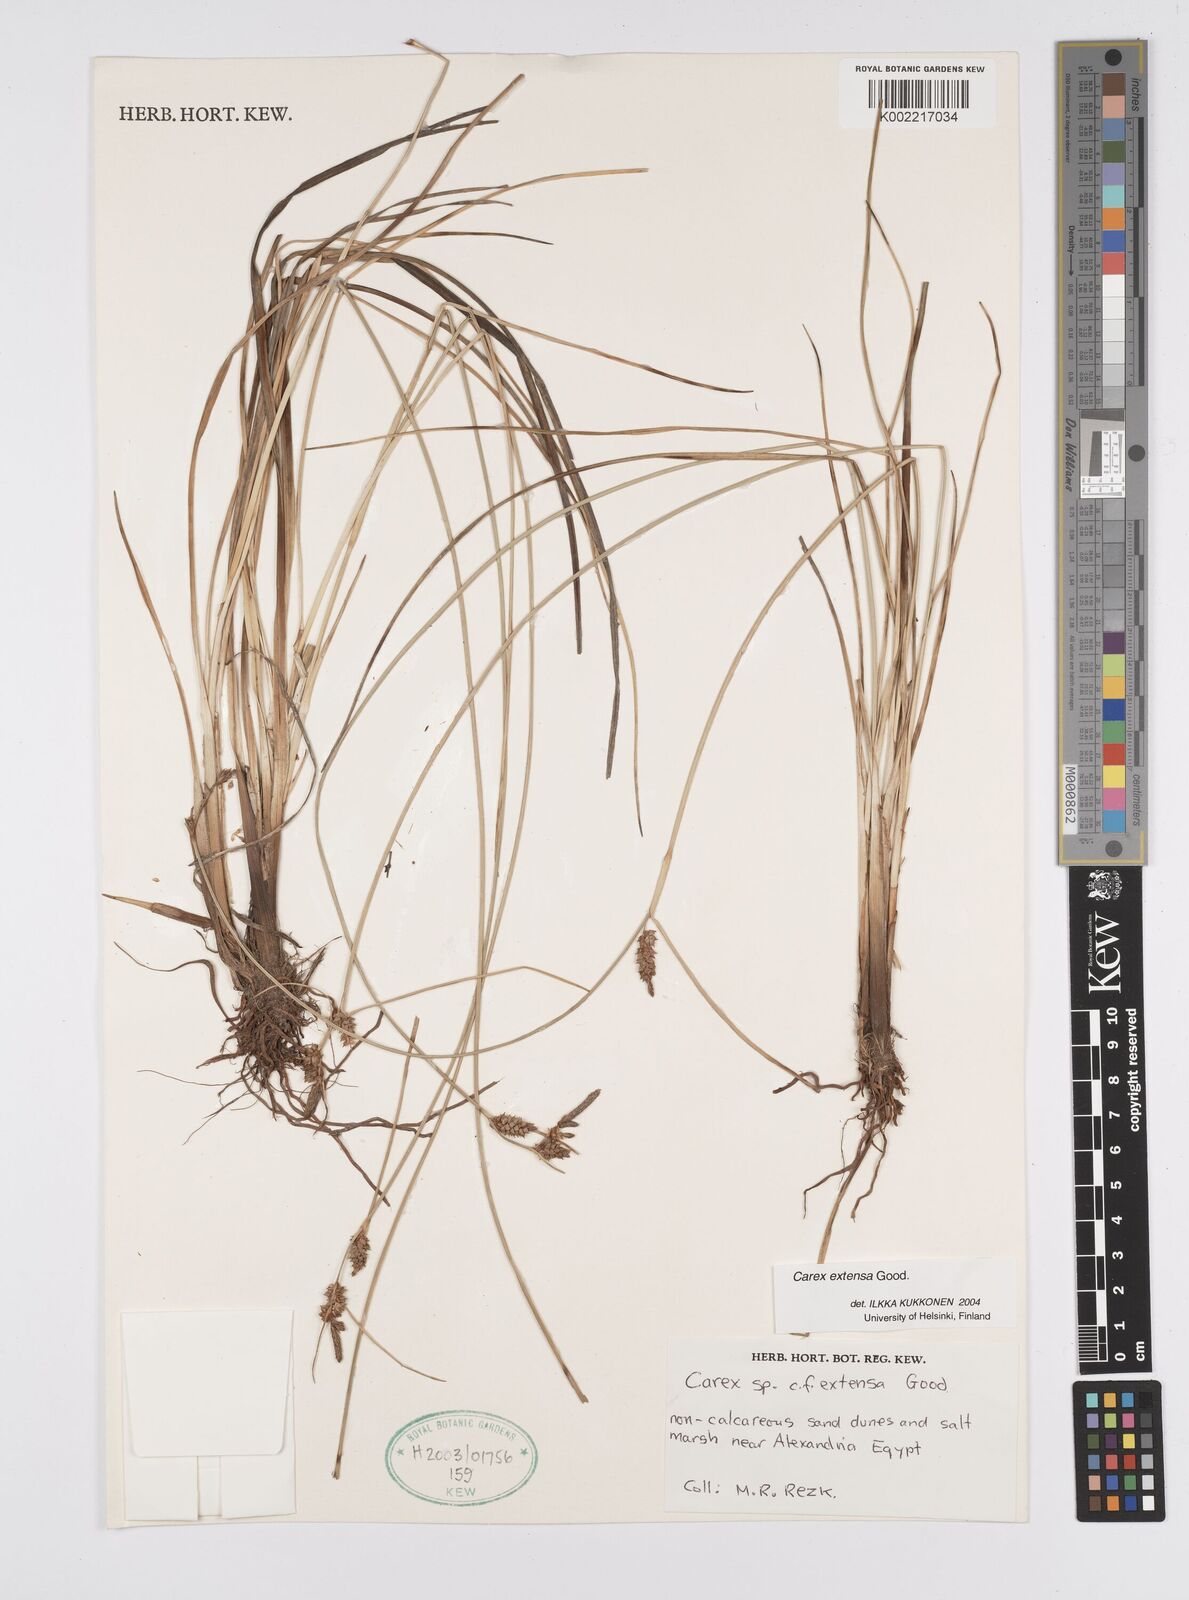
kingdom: Plantae
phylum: Tracheophyta
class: Liliopsida
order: Poales
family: Cyperaceae
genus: Carex
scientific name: Carex extensa
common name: Long-bracted sedge
